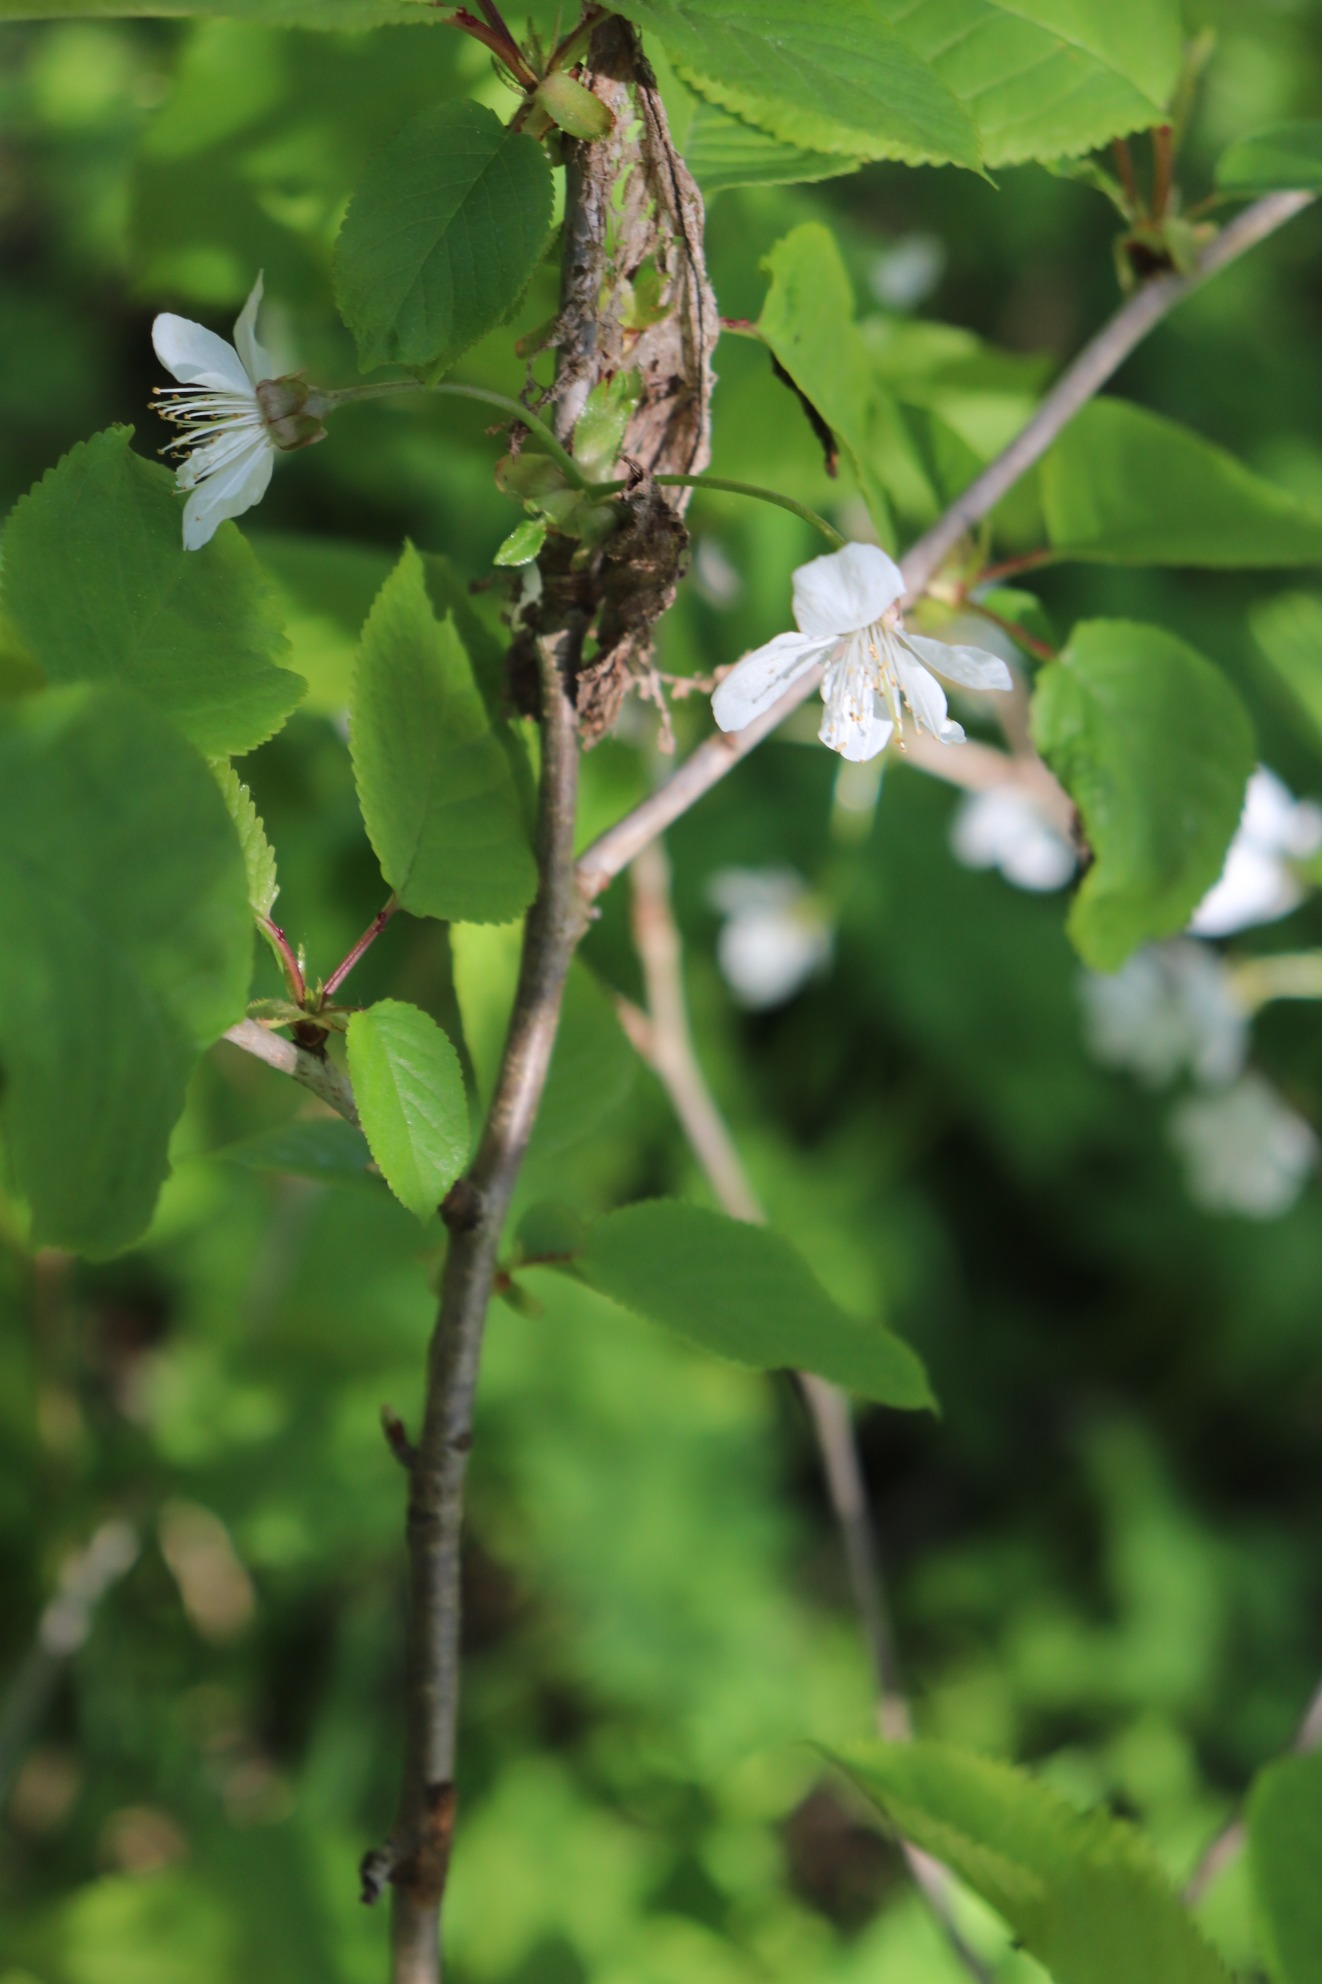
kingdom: Plantae
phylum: Tracheophyta
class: Magnoliopsida
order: Rosales
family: Rosaceae
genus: Prunus
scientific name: Prunus avium
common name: Fugle-kirsebær
